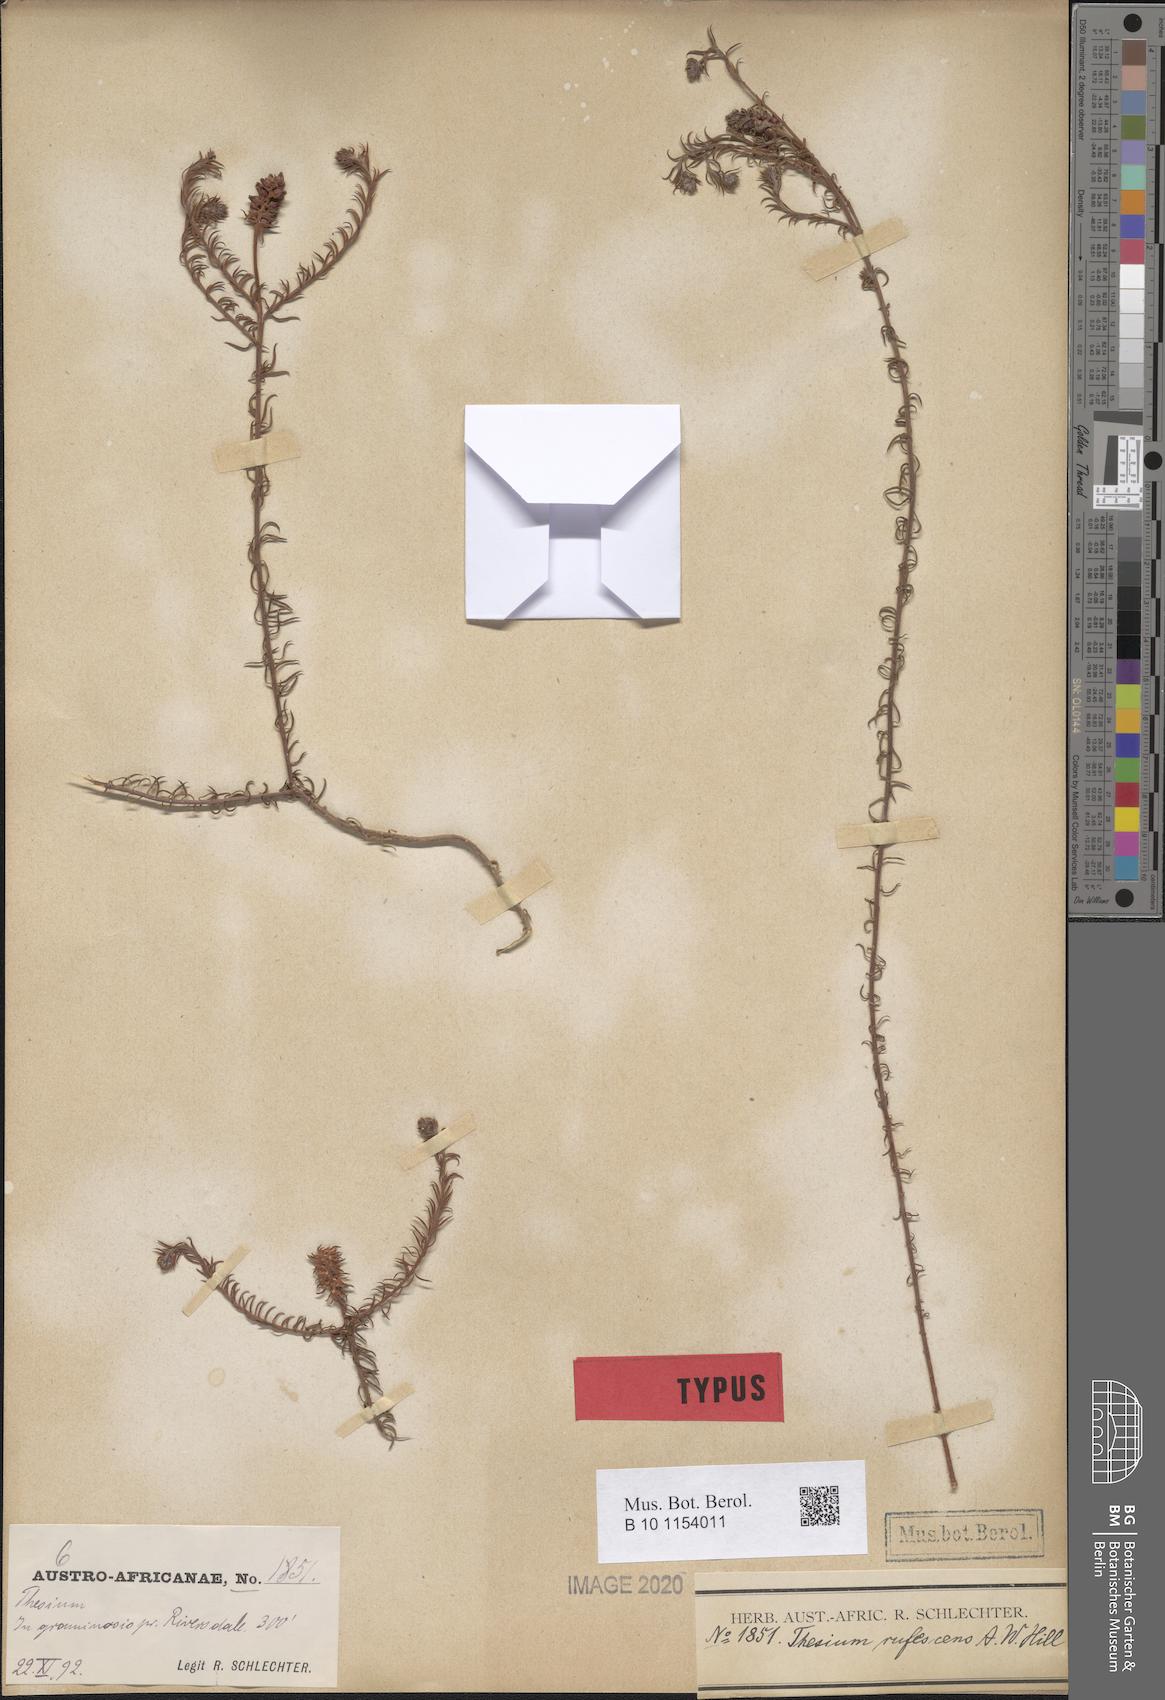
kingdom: Plantae
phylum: Tracheophyta
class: Magnoliopsida
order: Santalales
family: Thesiaceae
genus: Thesium
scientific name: Thesium rufescens
